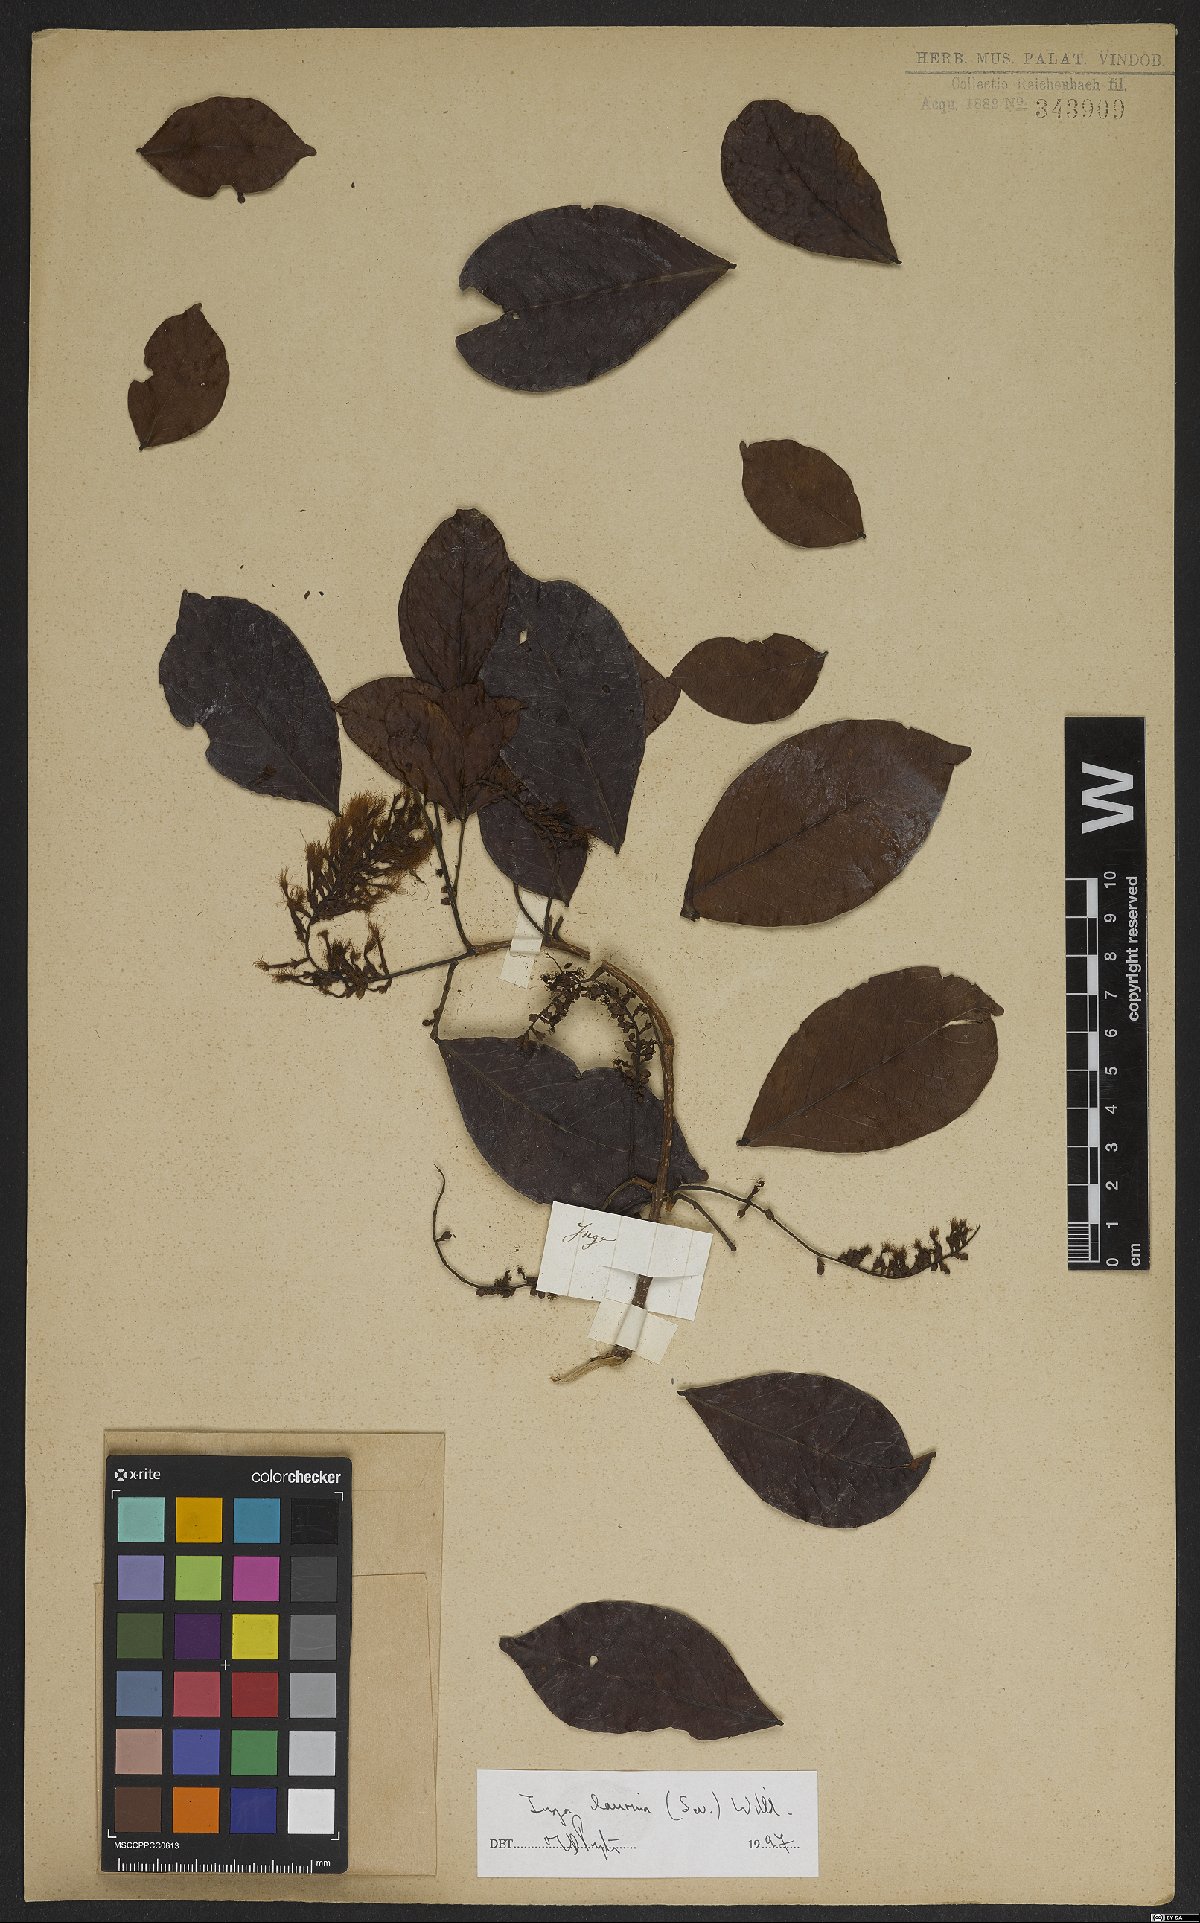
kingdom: Plantae
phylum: Tracheophyta
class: Magnoliopsida
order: Fabales
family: Fabaceae
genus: Inga
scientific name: Inga laurina
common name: Red wood
